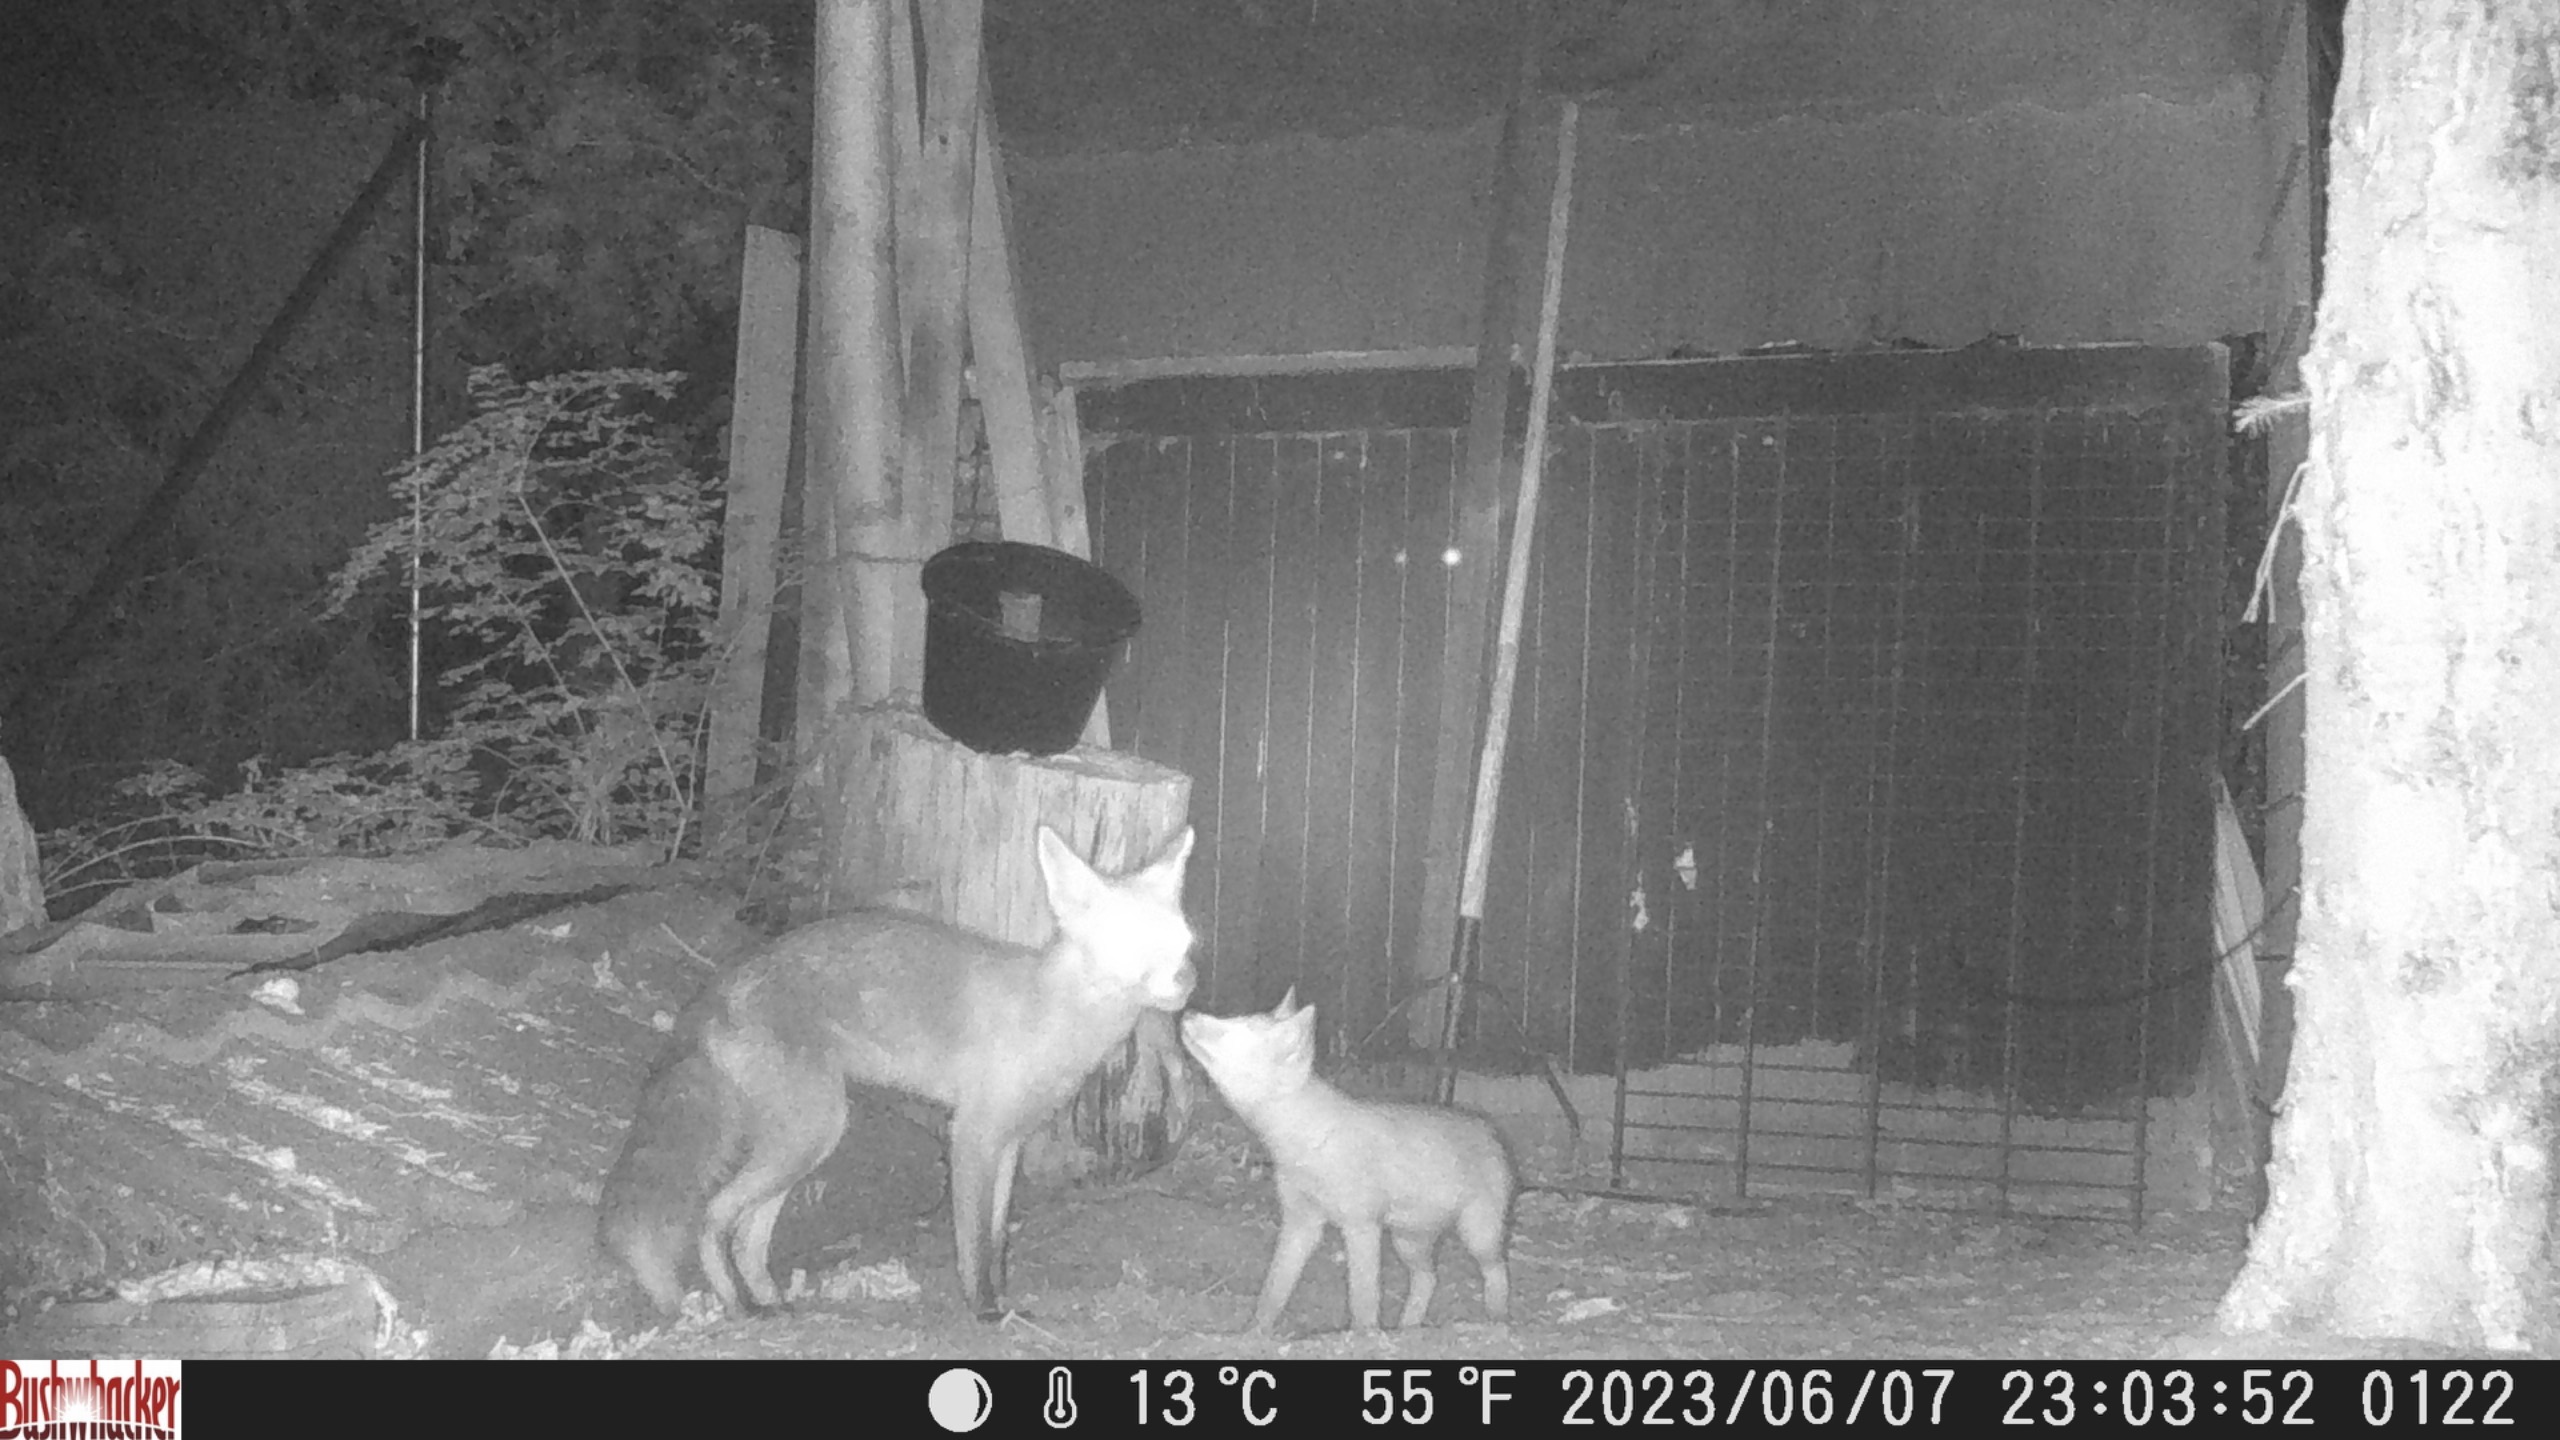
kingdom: Animalia
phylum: Chordata
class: Mammalia
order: Carnivora
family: Canidae
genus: Vulpes
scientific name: Vulpes vulpes
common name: Ræv
